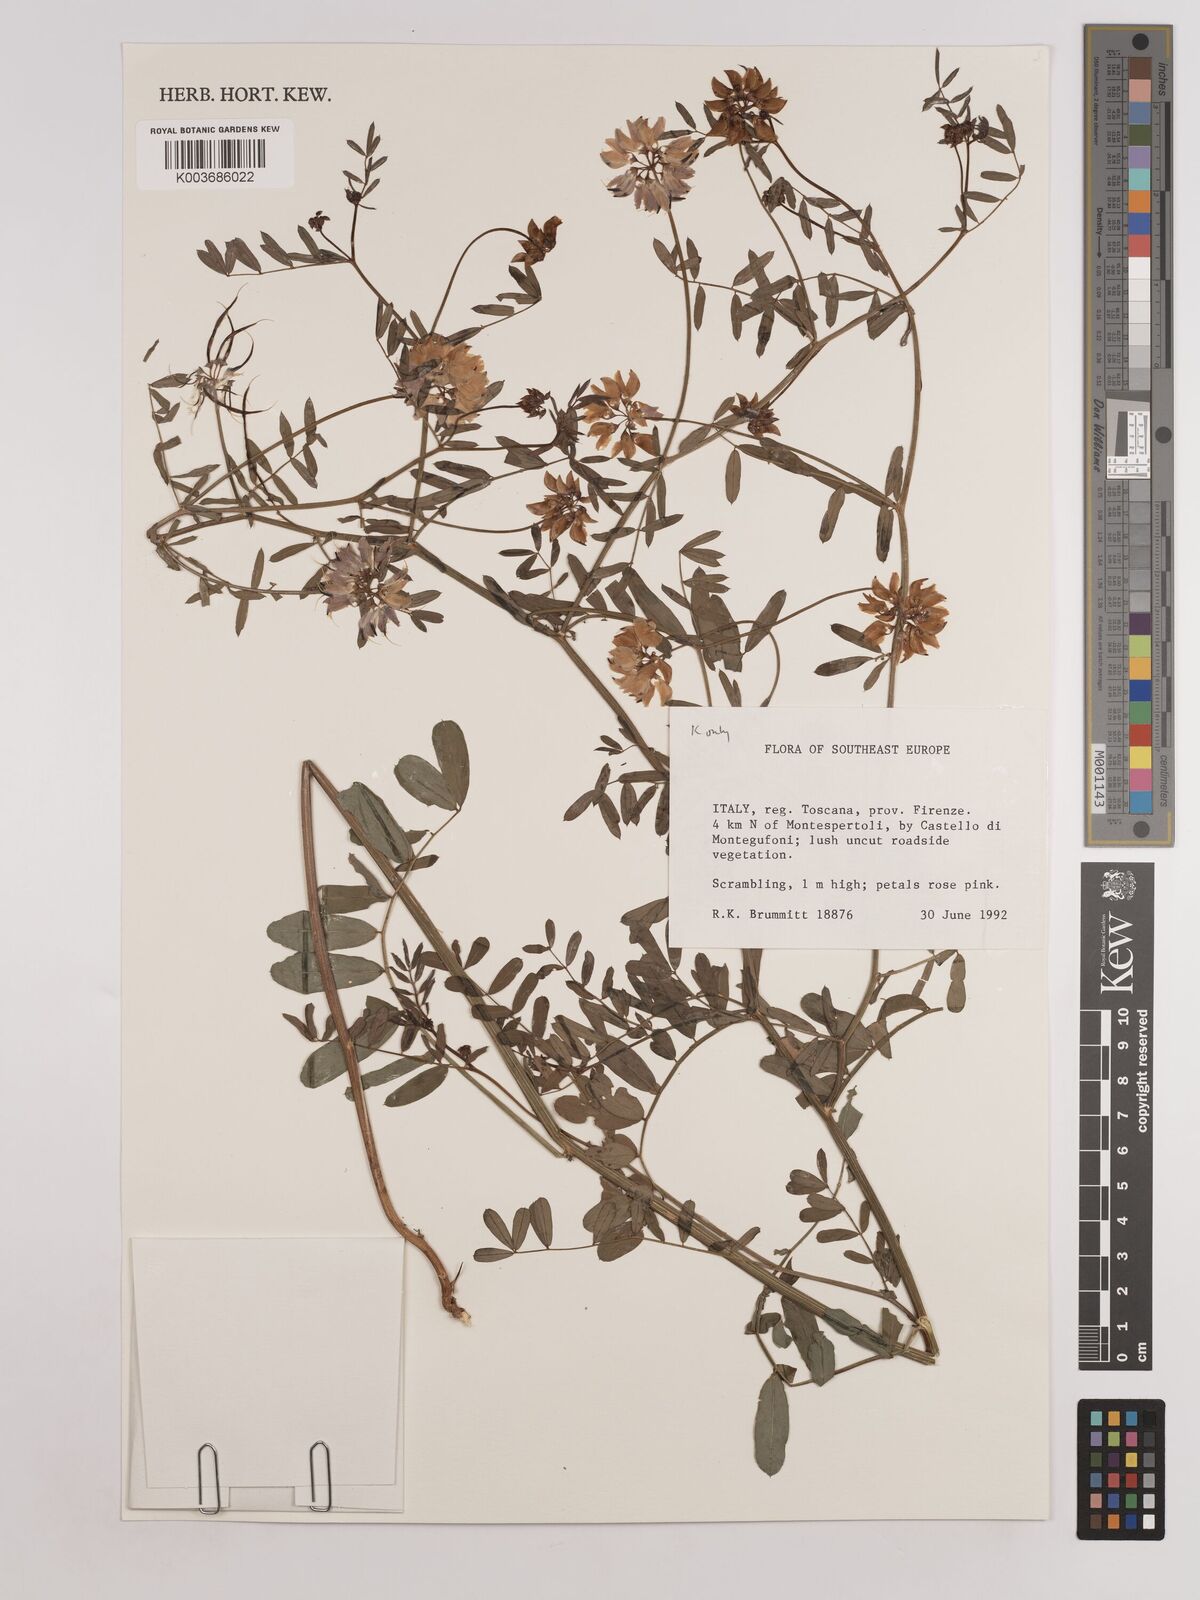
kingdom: Plantae
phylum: Tracheophyta
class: Magnoliopsida
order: Fabales
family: Fabaceae
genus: Coronilla
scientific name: Coronilla varia
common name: Crownvetch
